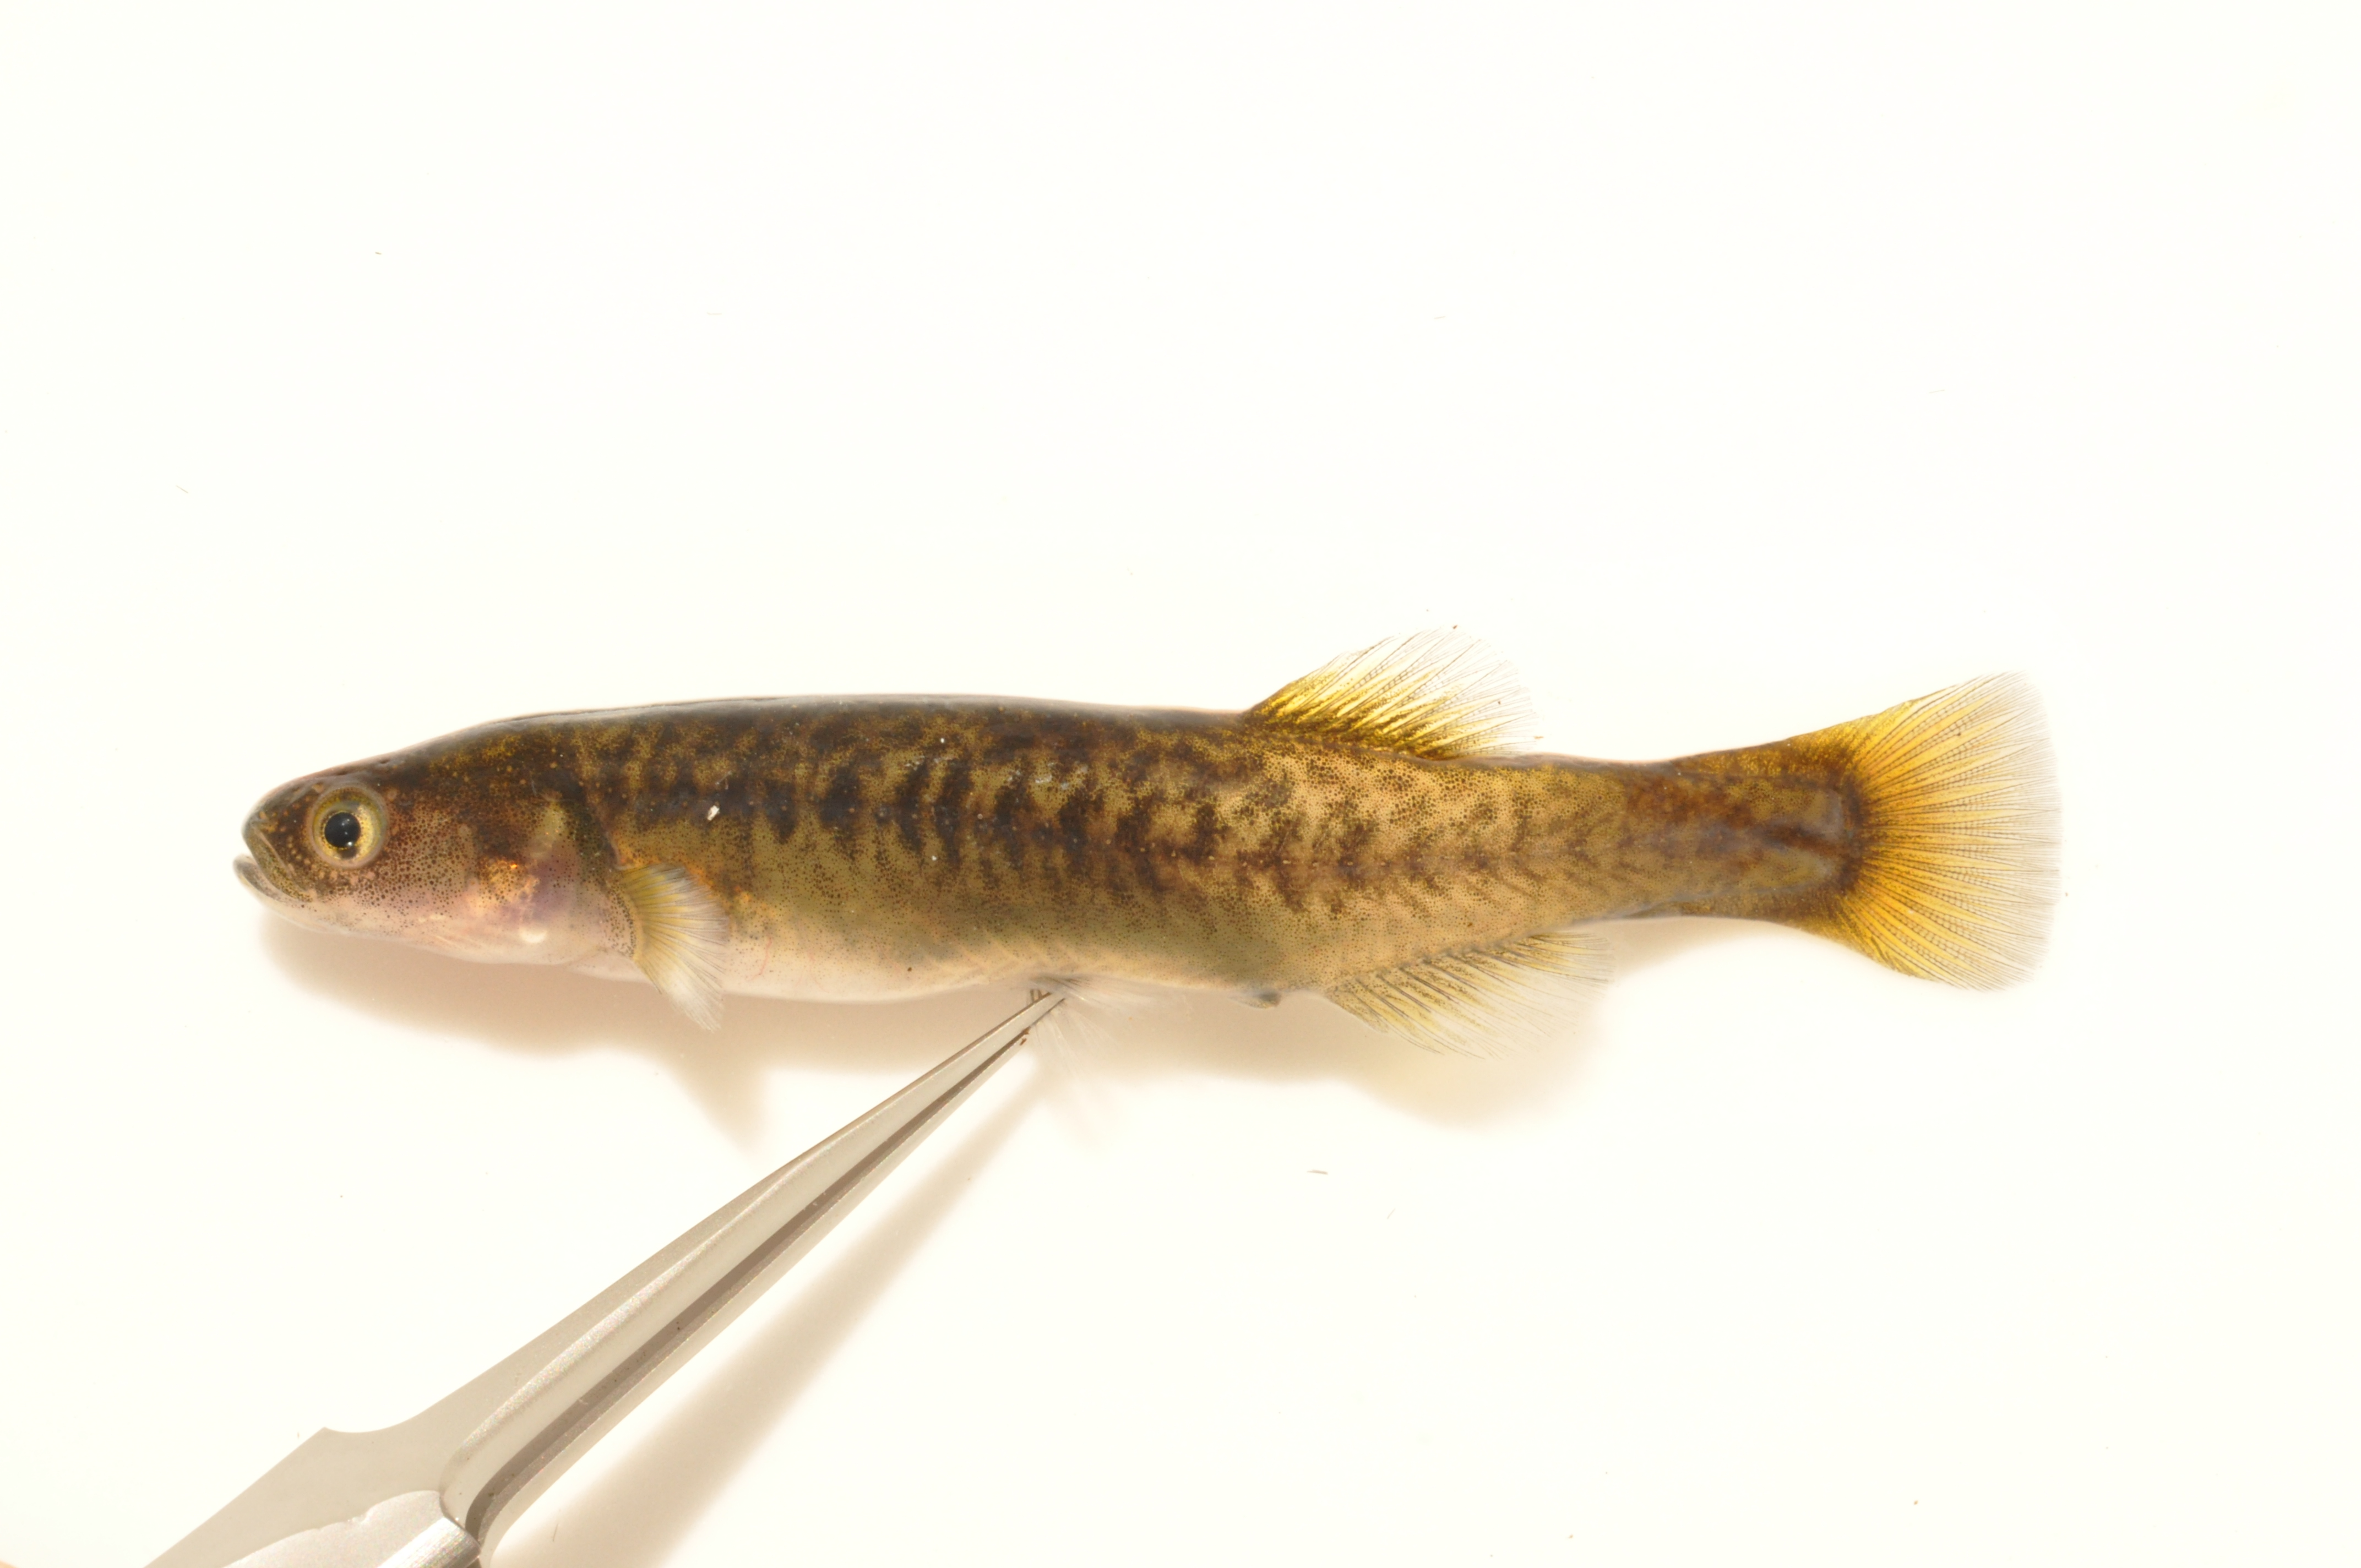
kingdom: Animalia
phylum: Chordata
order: Osmeriformes
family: Galaxiidae
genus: Galaxias
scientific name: Galaxias
